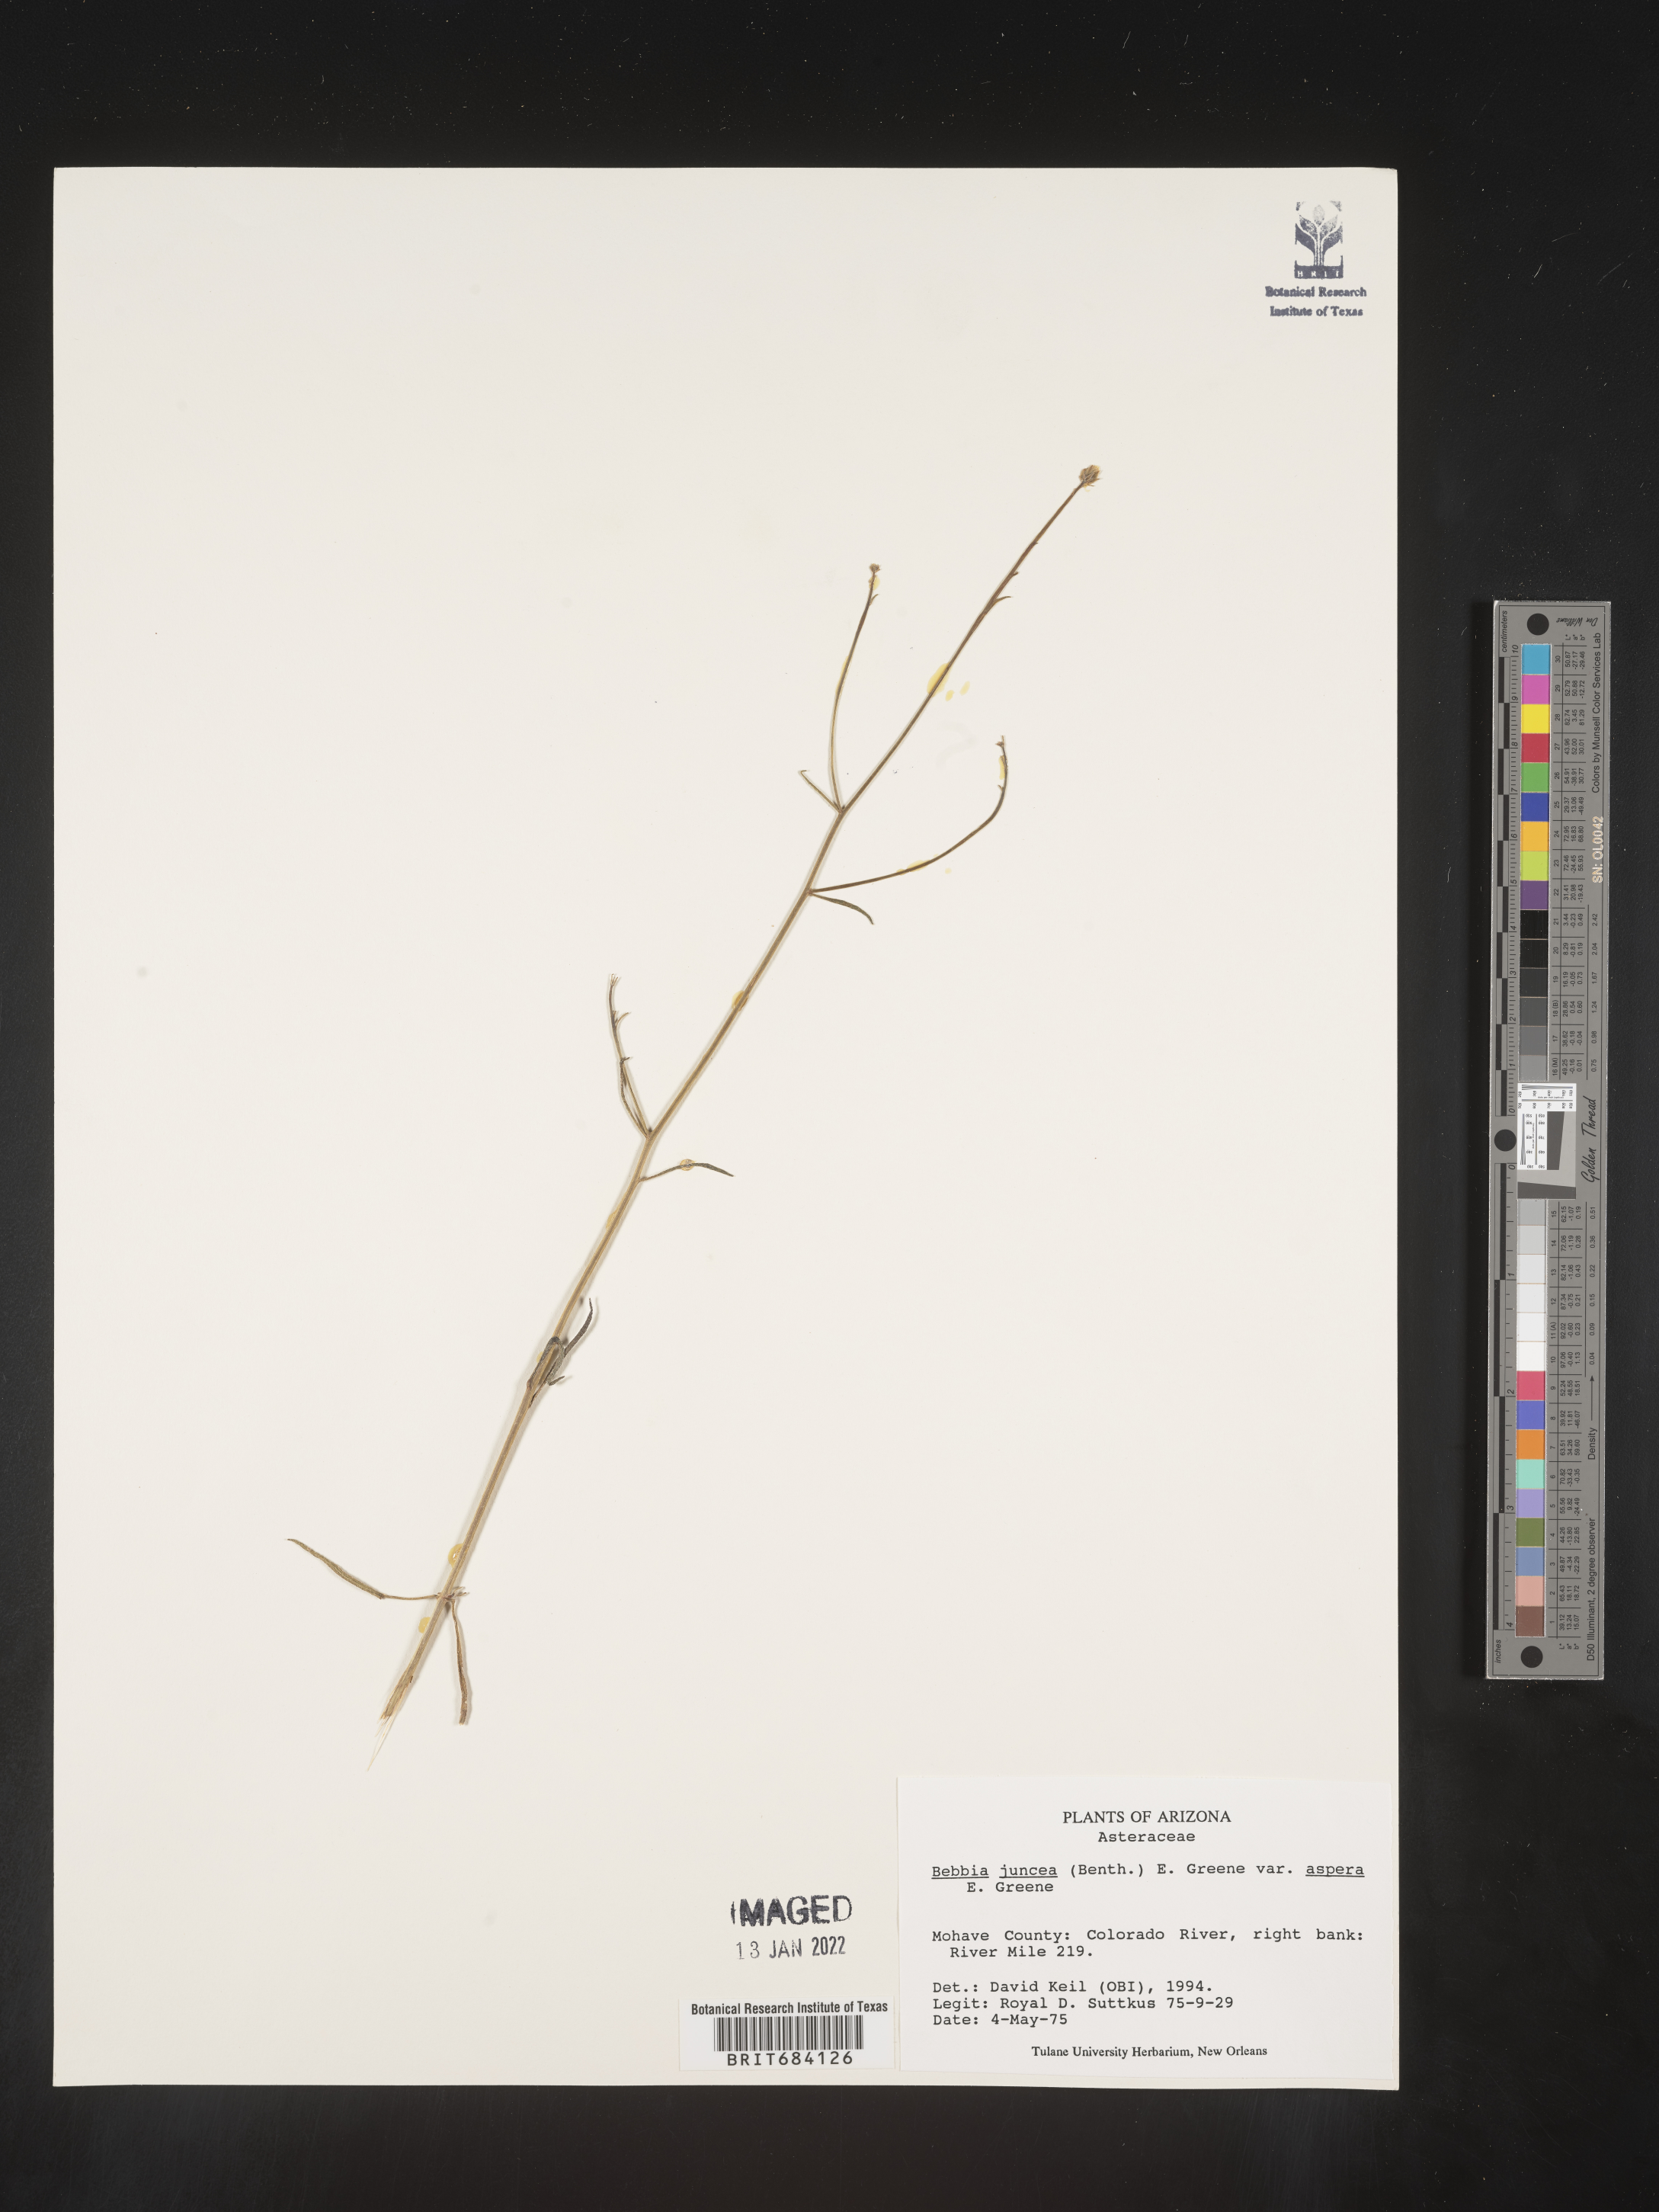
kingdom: Plantae
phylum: Tracheophyta
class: Magnoliopsida
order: Asterales
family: Asteraceae
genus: Bebbia
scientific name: Bebbia
